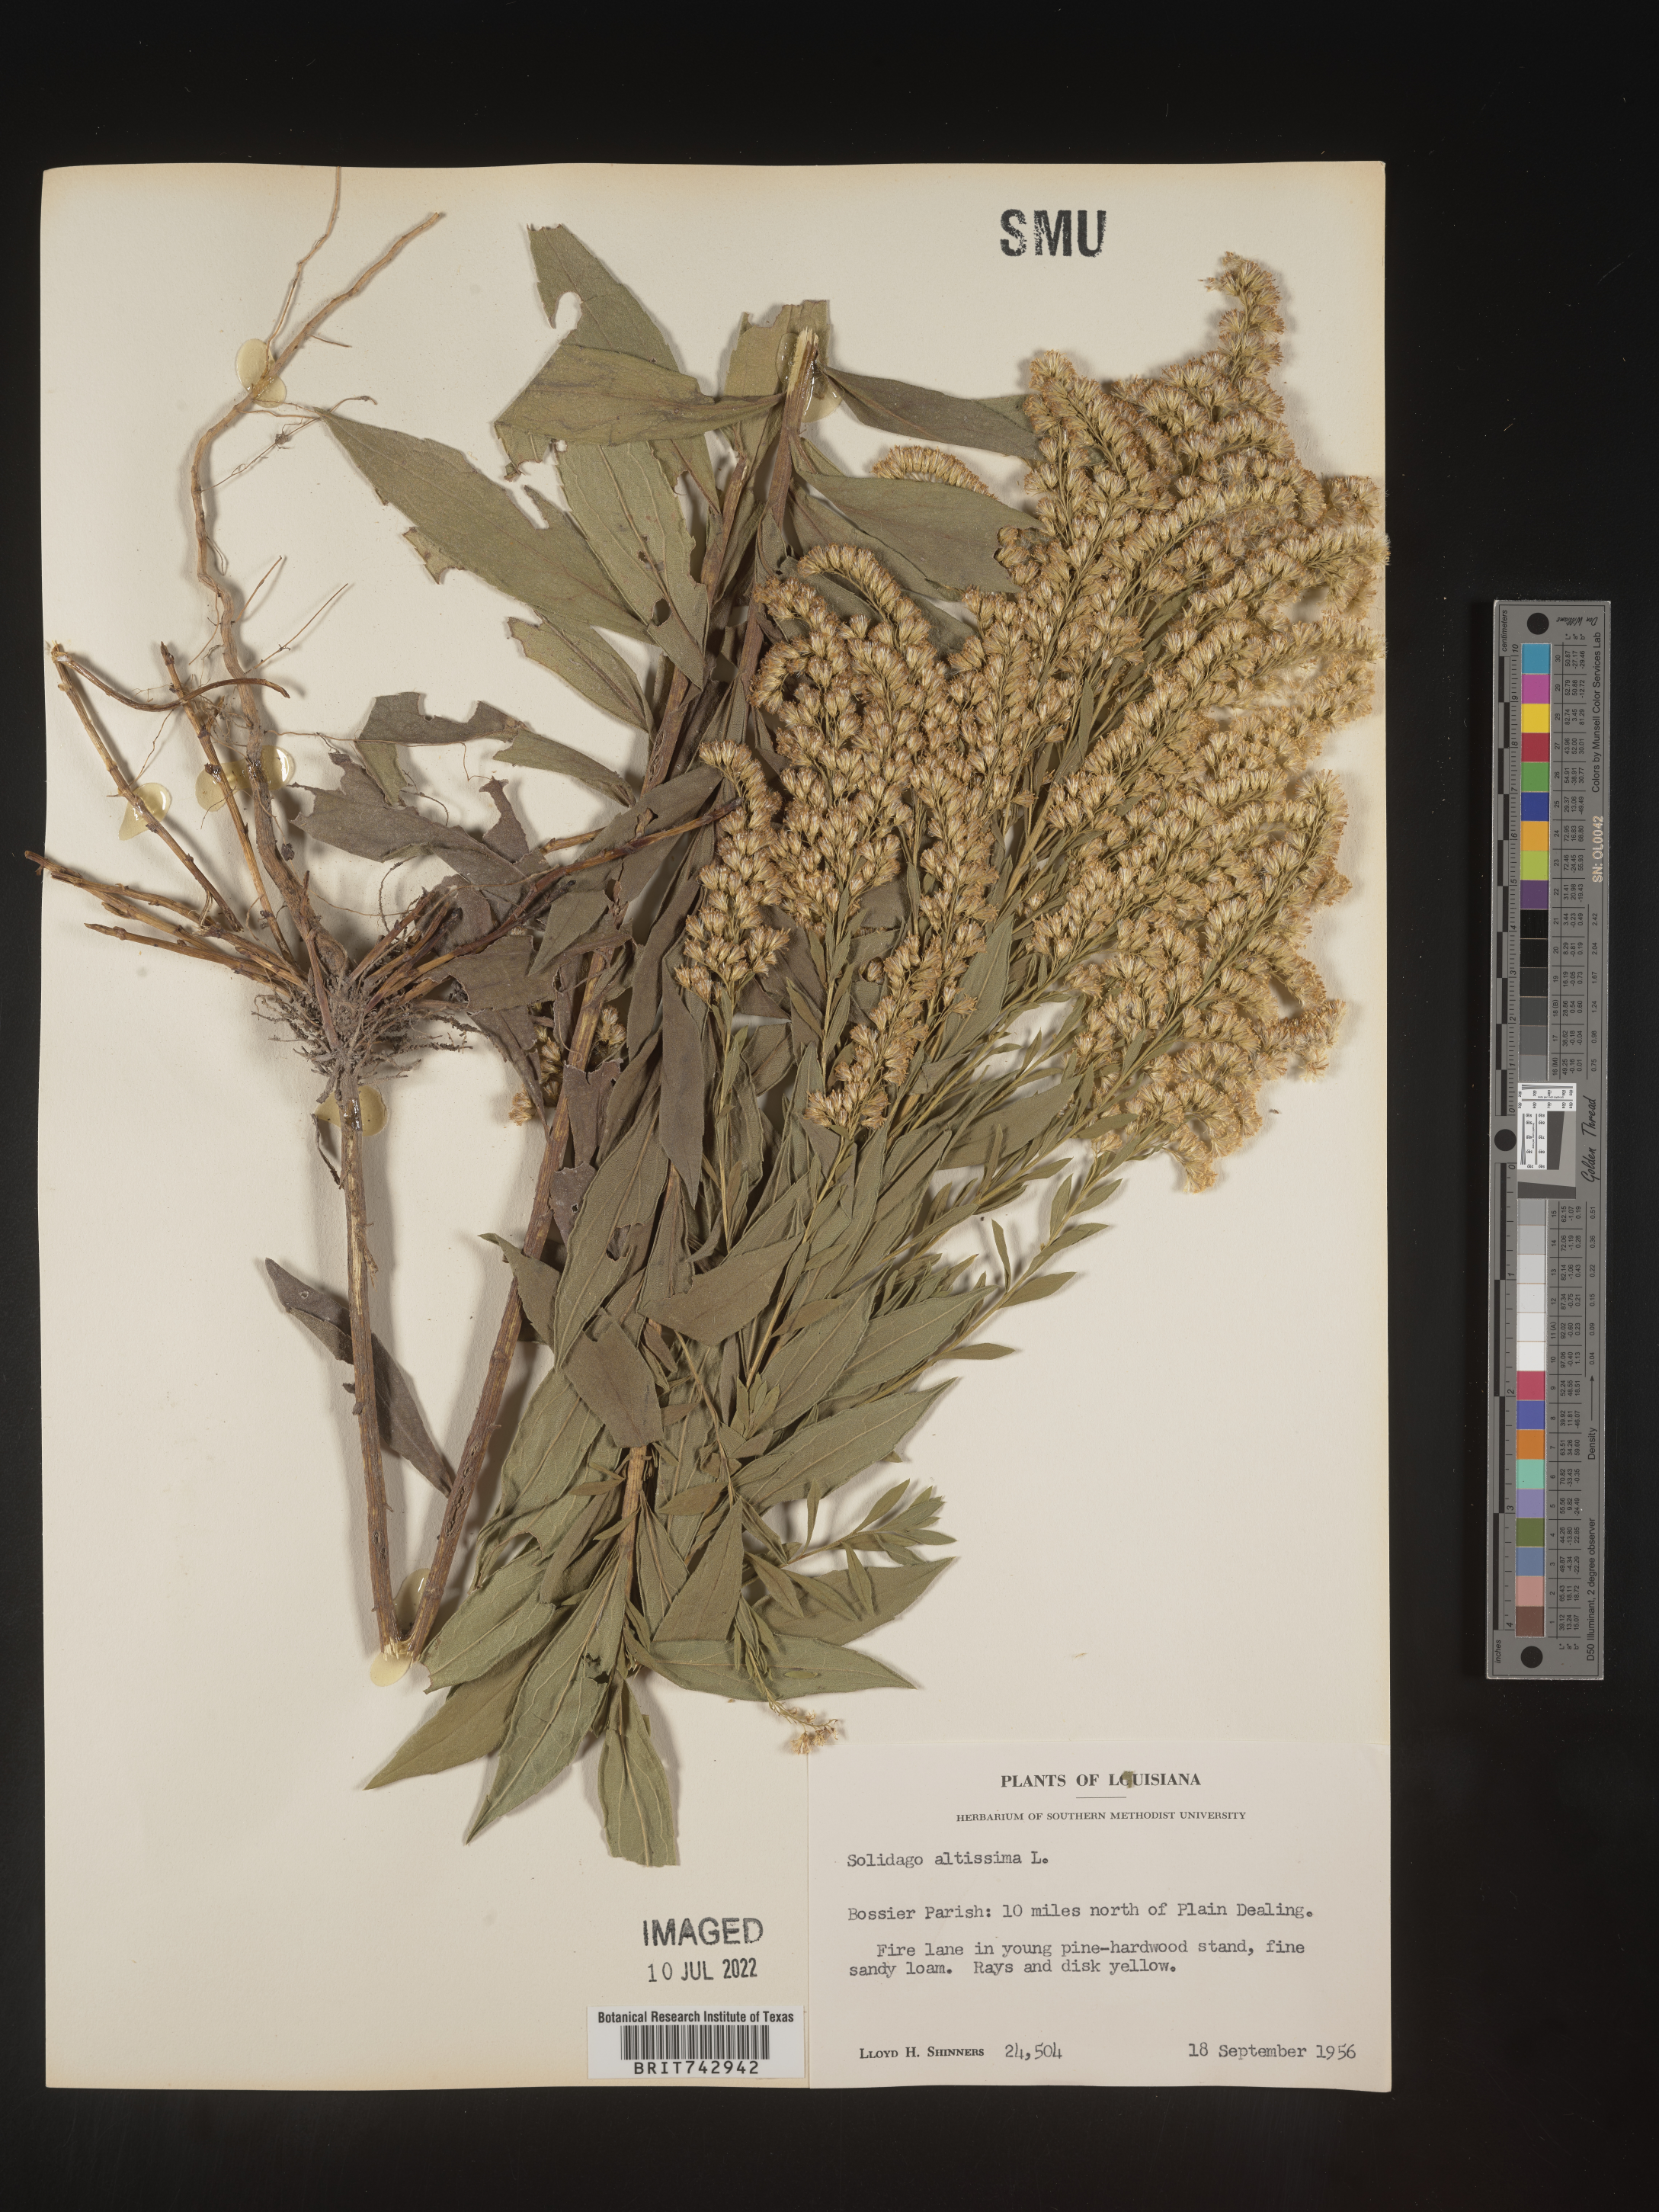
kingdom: Plantae
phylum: Tracheophyta
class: Magnoliopsida
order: Asterales
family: Asteraceae
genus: Solidago
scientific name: Solidago altissima
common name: Late goldenrod
